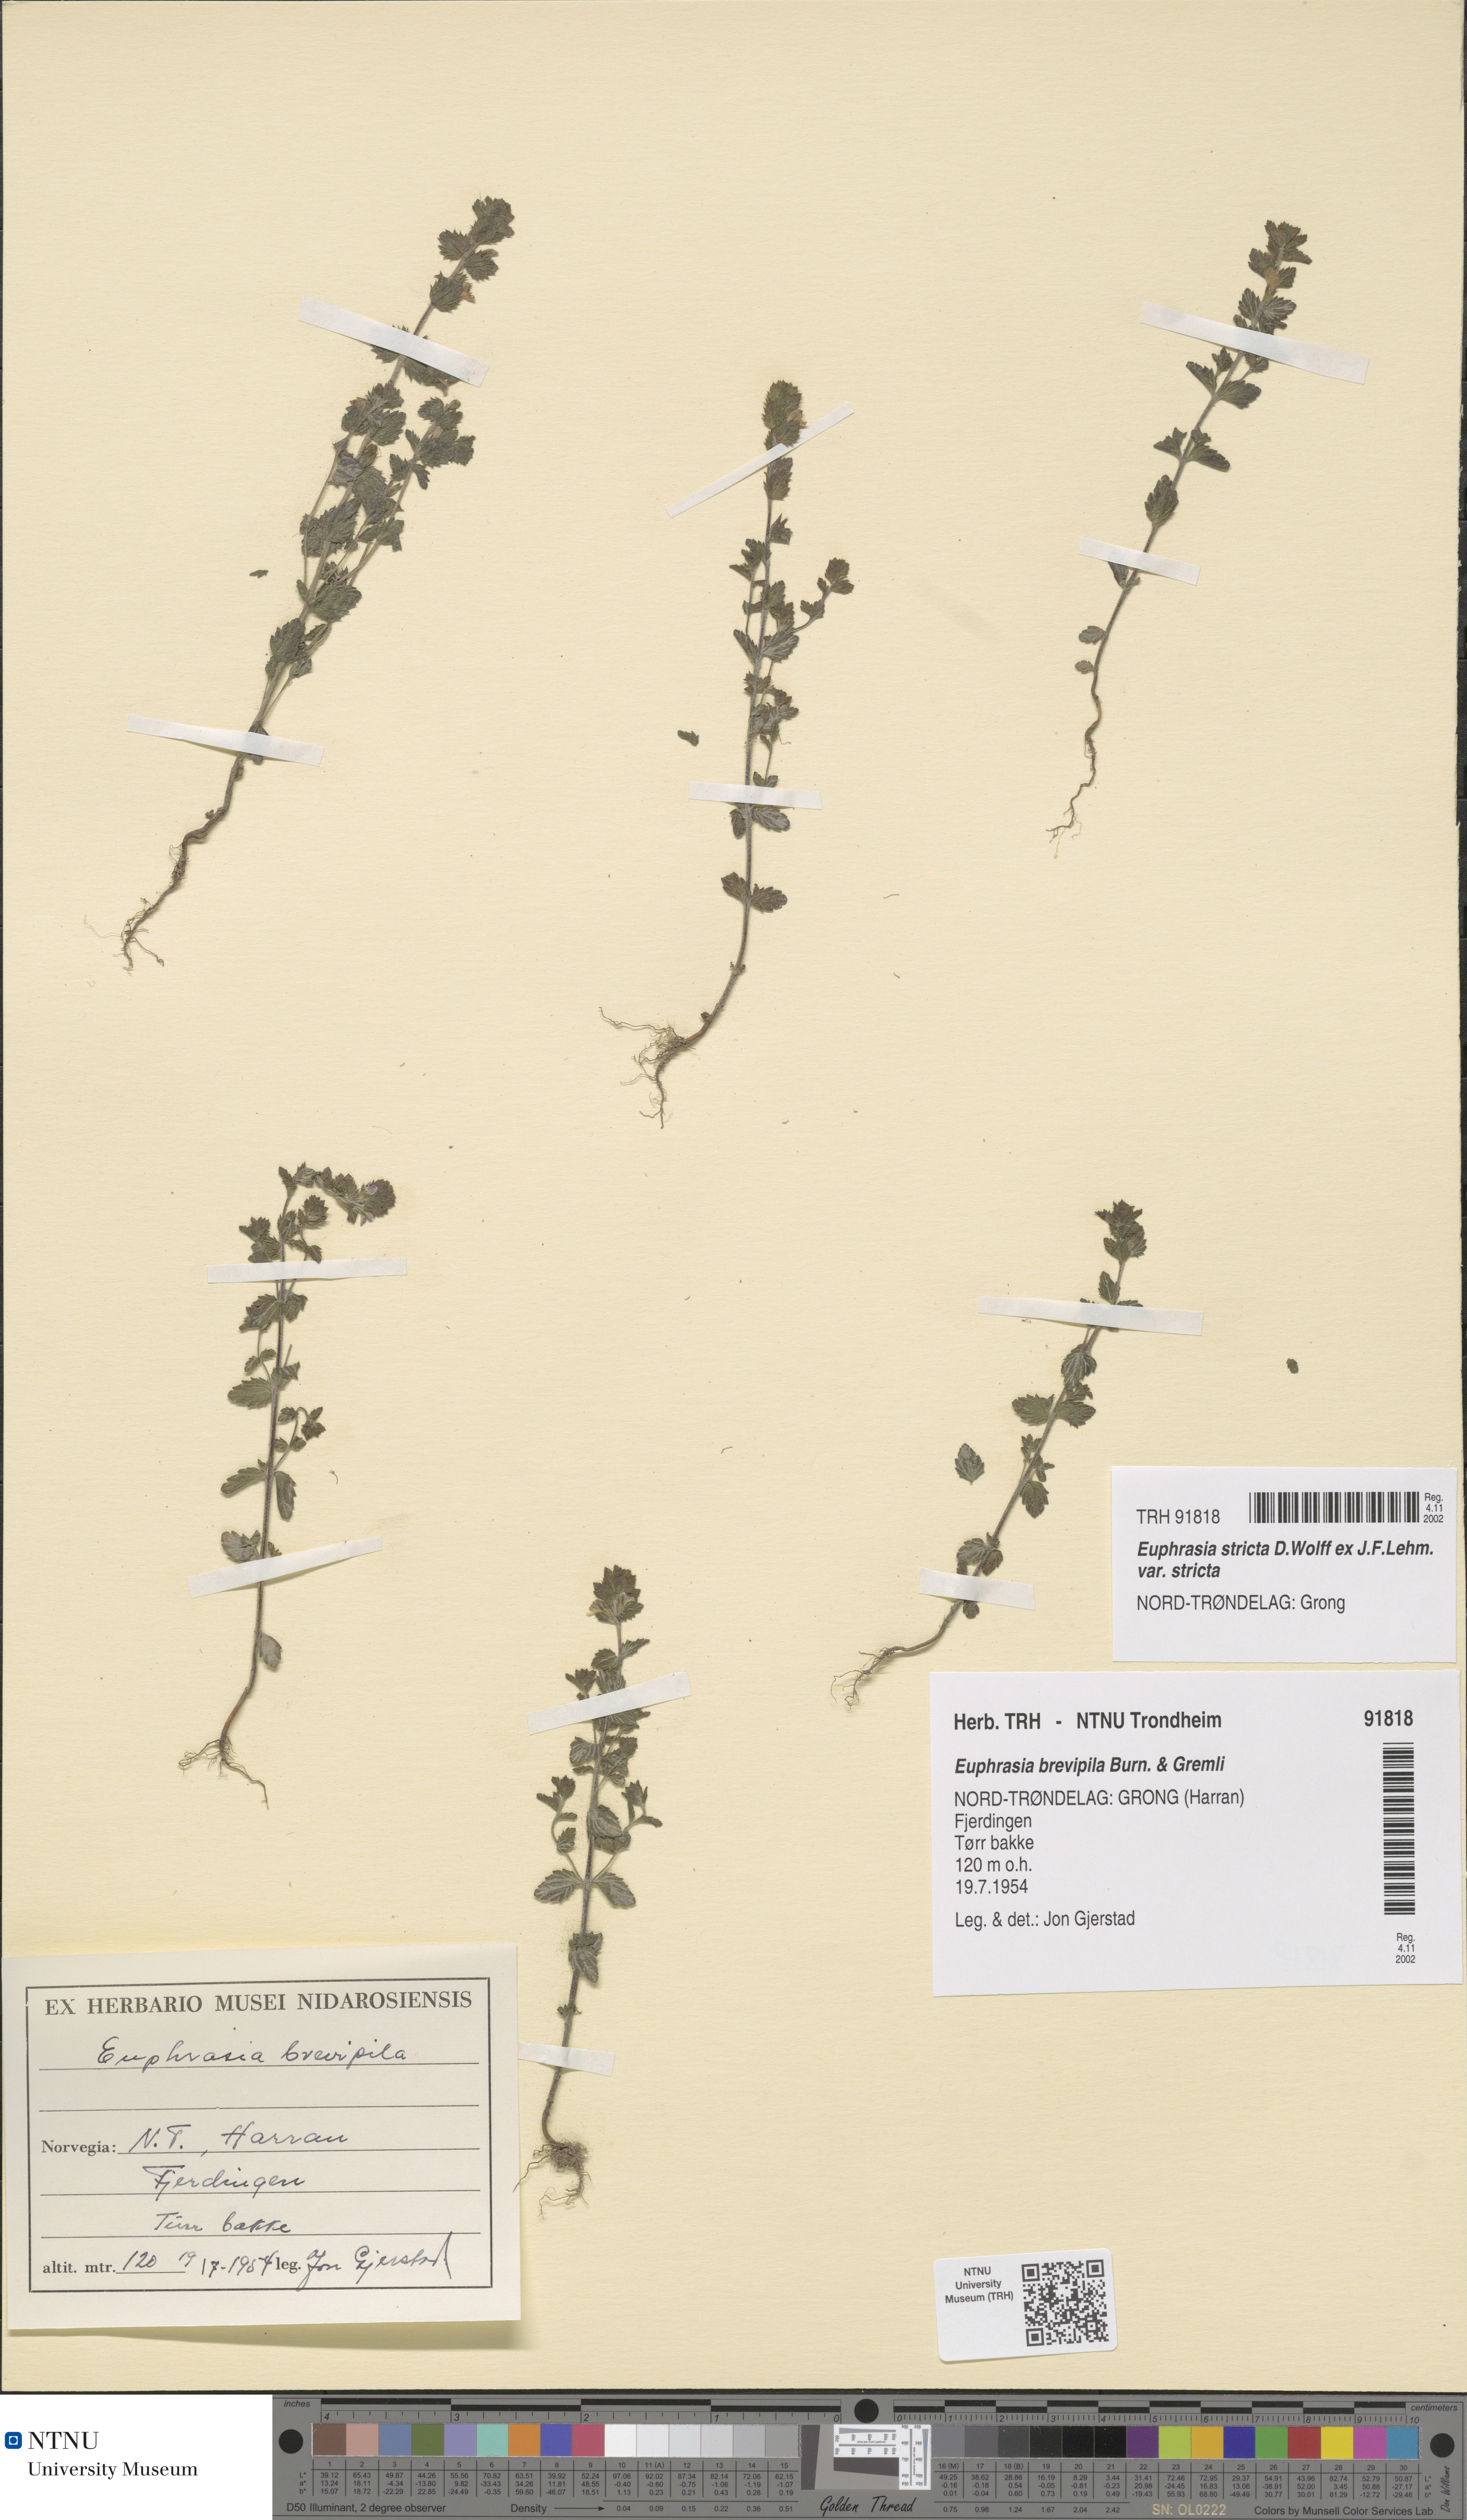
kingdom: Plantae
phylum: Tracheophyta
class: Magnoliopsida
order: Lamiales
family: Orobanchaceae
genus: Euphrasia
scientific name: Euphrasia vernalis
